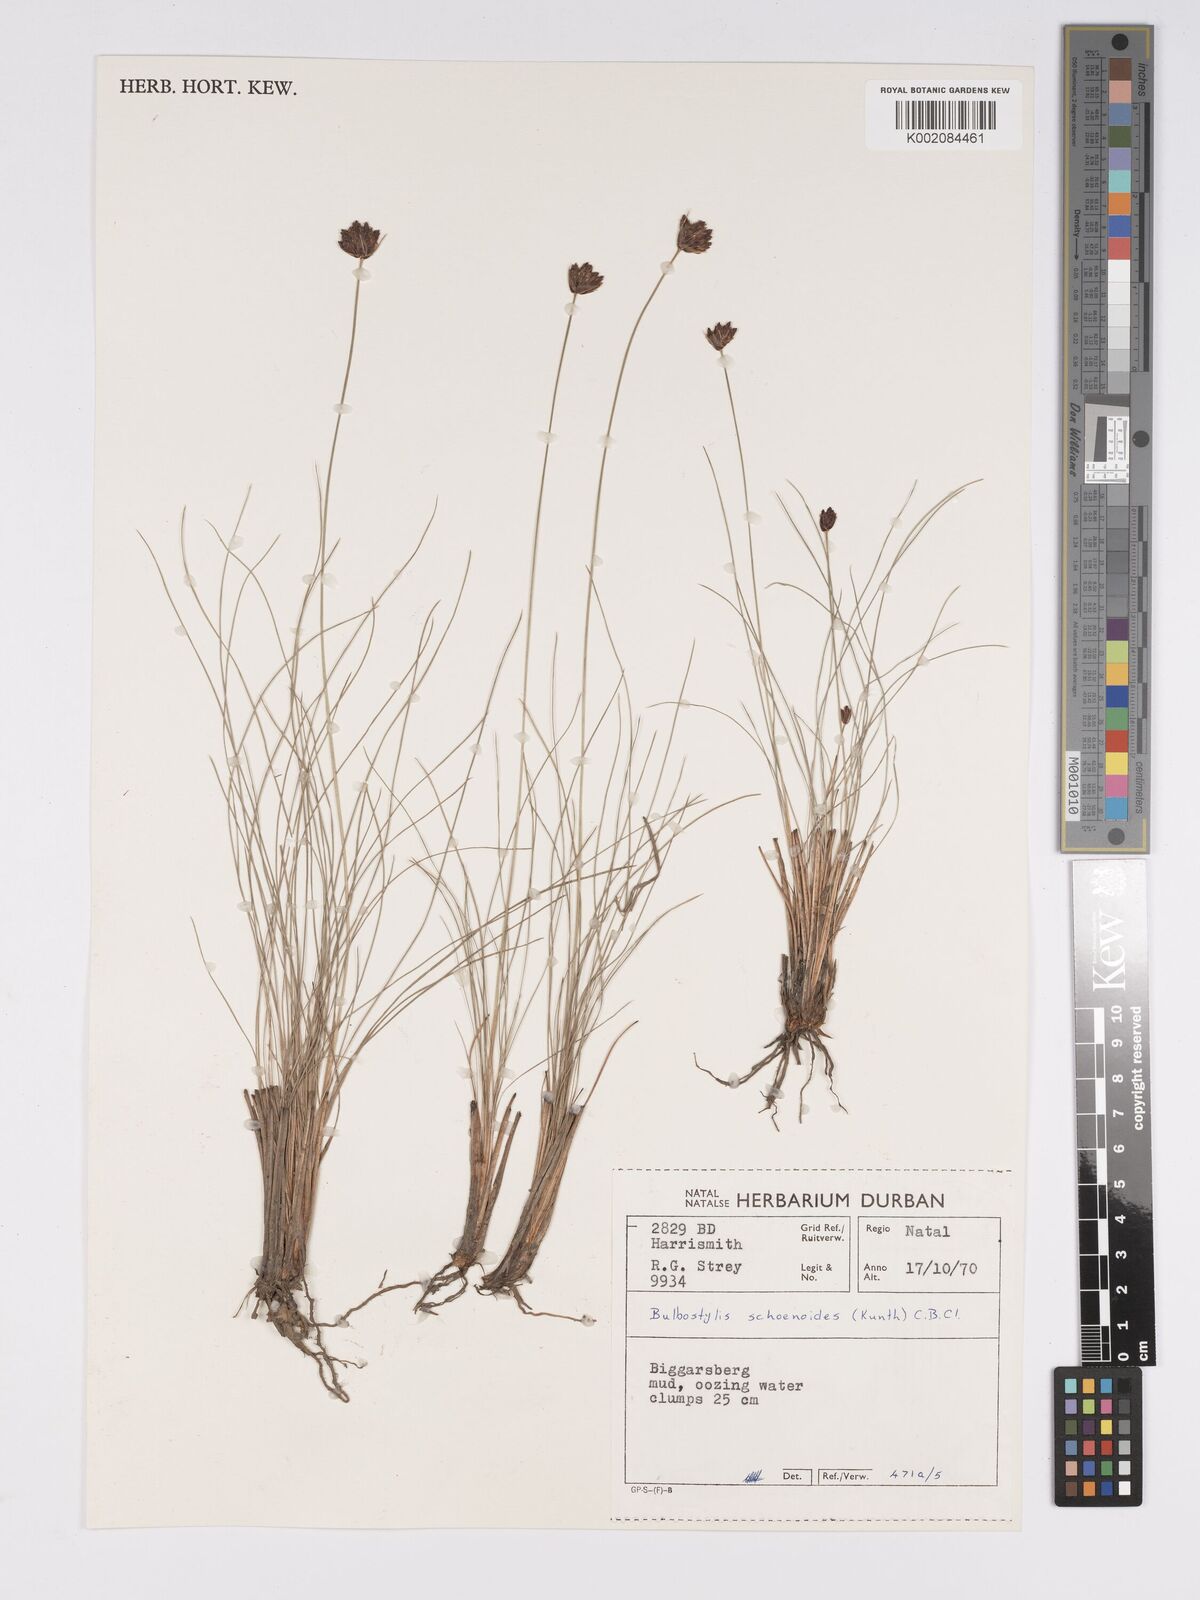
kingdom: Plantae
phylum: Tracheophyta
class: Liliopsida
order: Poales
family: Cyperaceae
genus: Bulbostylis
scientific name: Bulbostylis schoenoides
